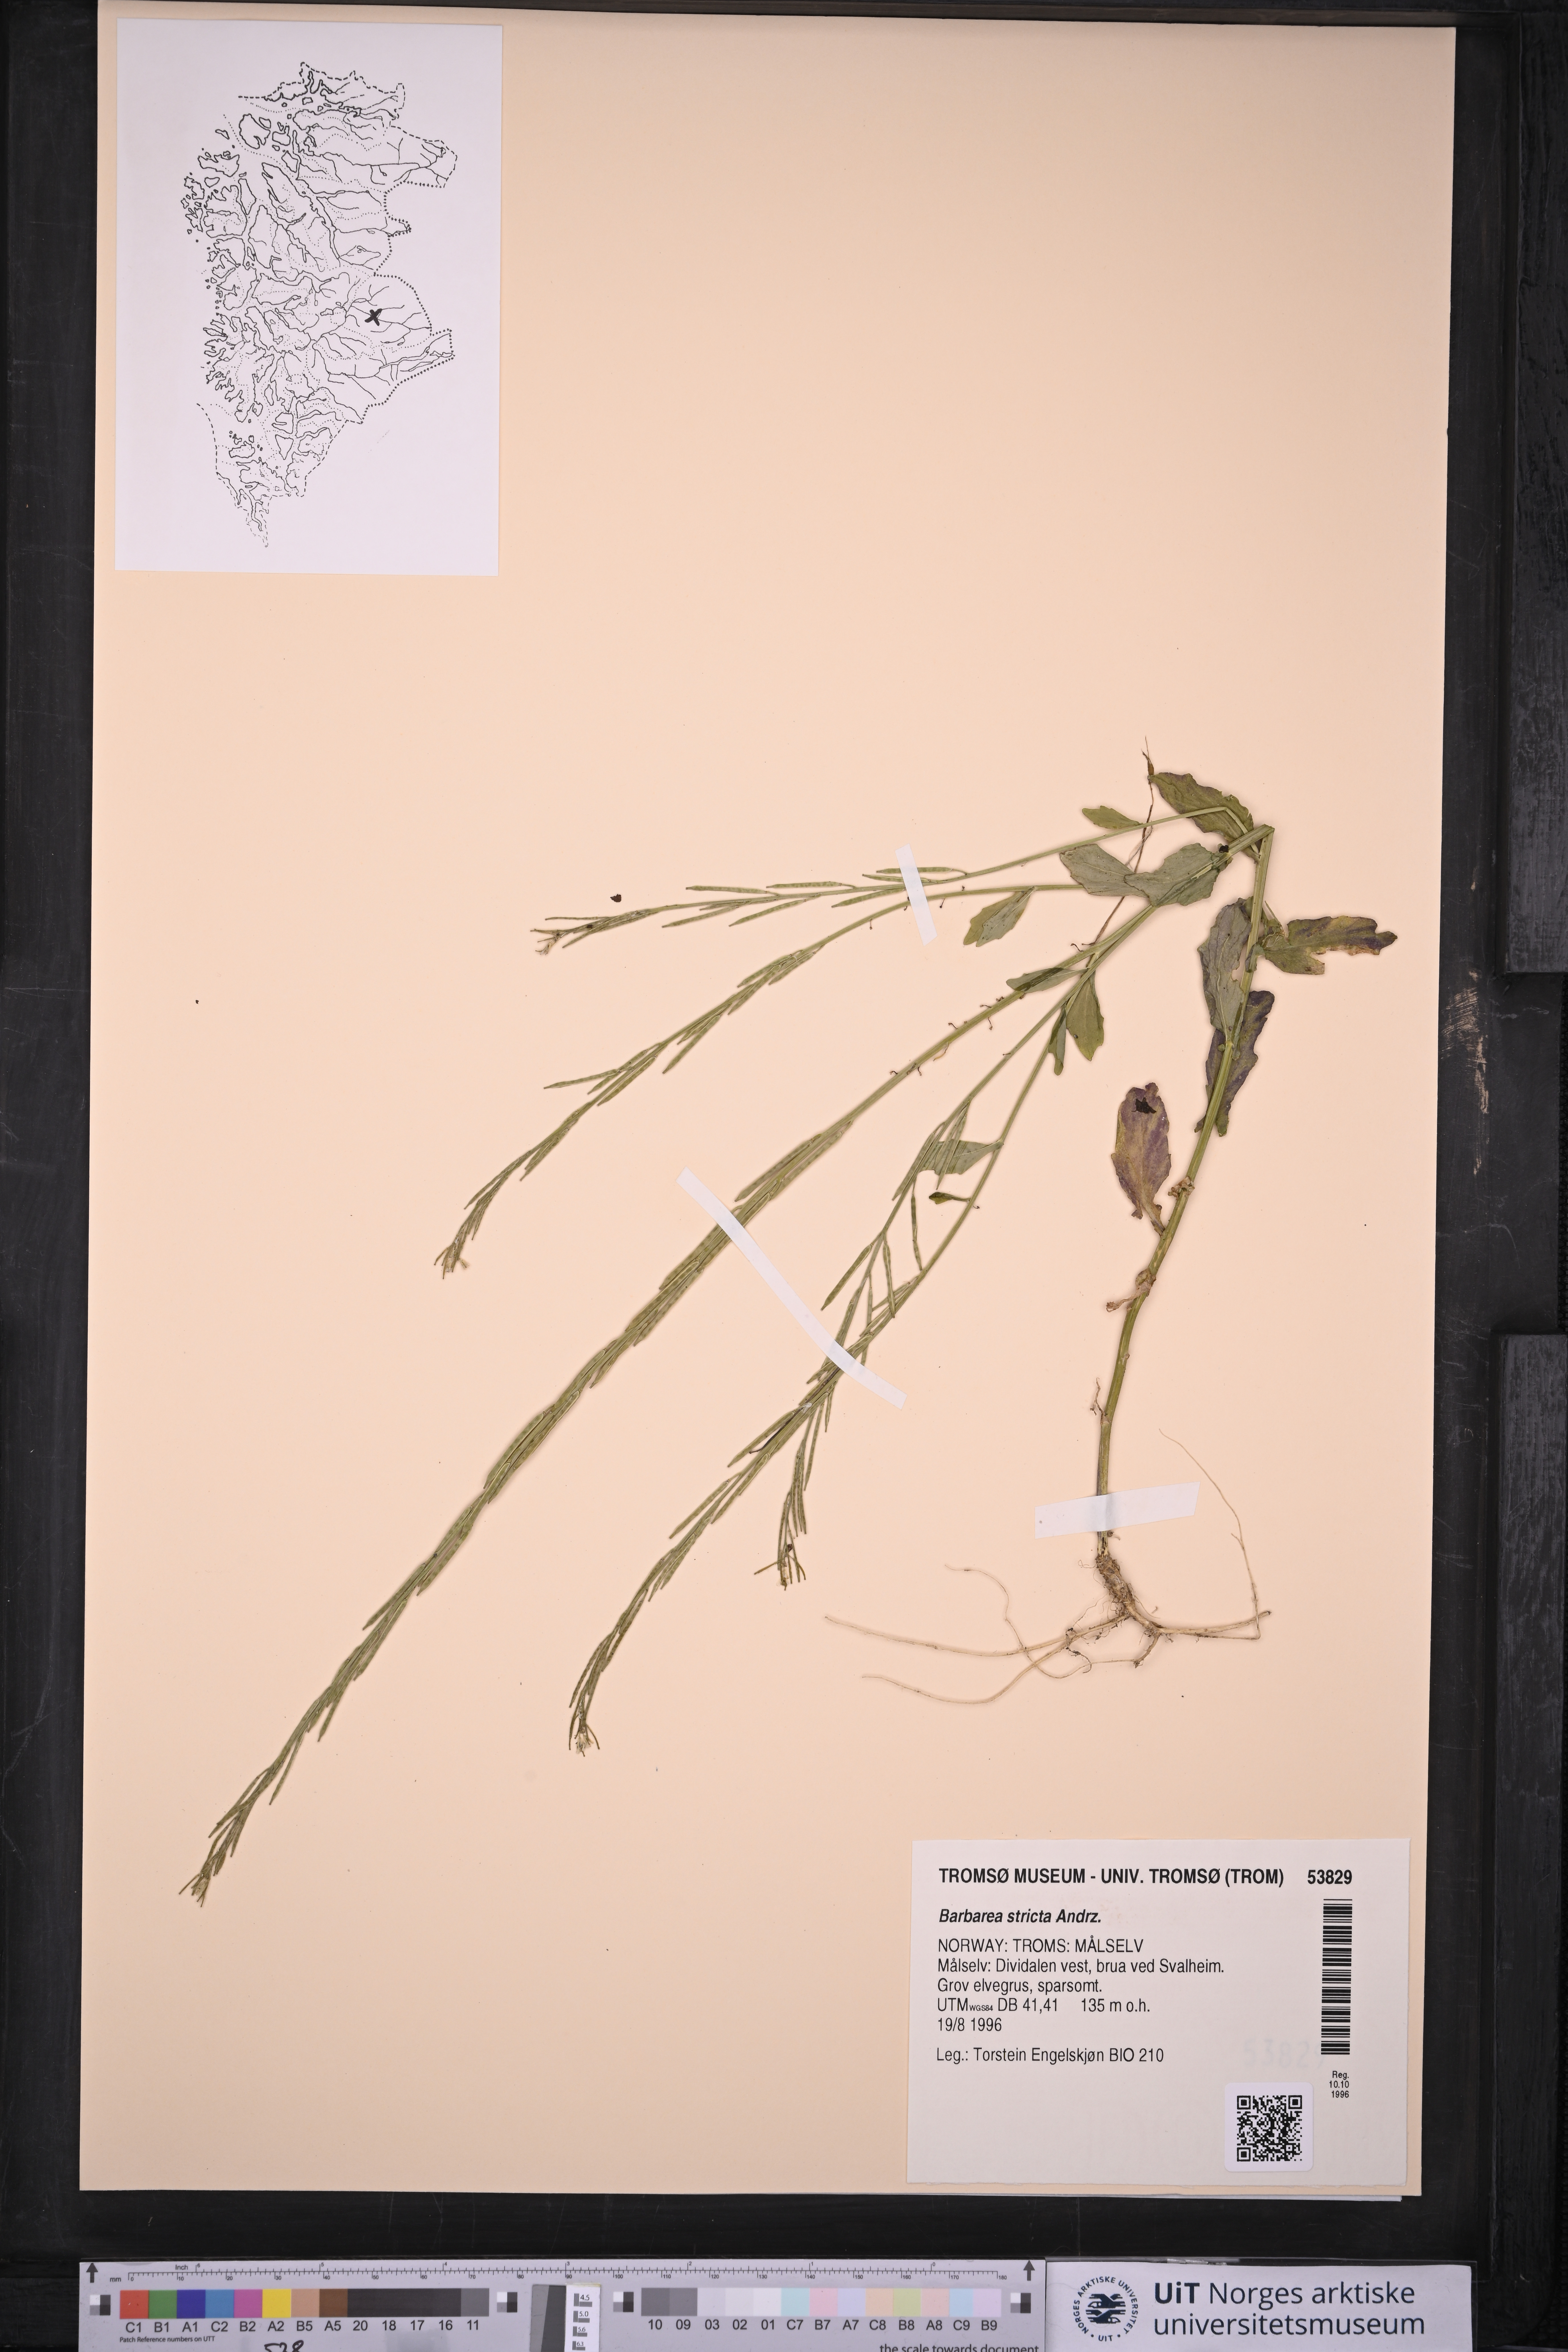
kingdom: Plantae
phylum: Tracheophyta
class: Magnoliopsida
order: Brassicales
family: Brassicaceae
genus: Barbarea
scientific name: Barbarea stricta
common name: Small-flowered winter-cress
